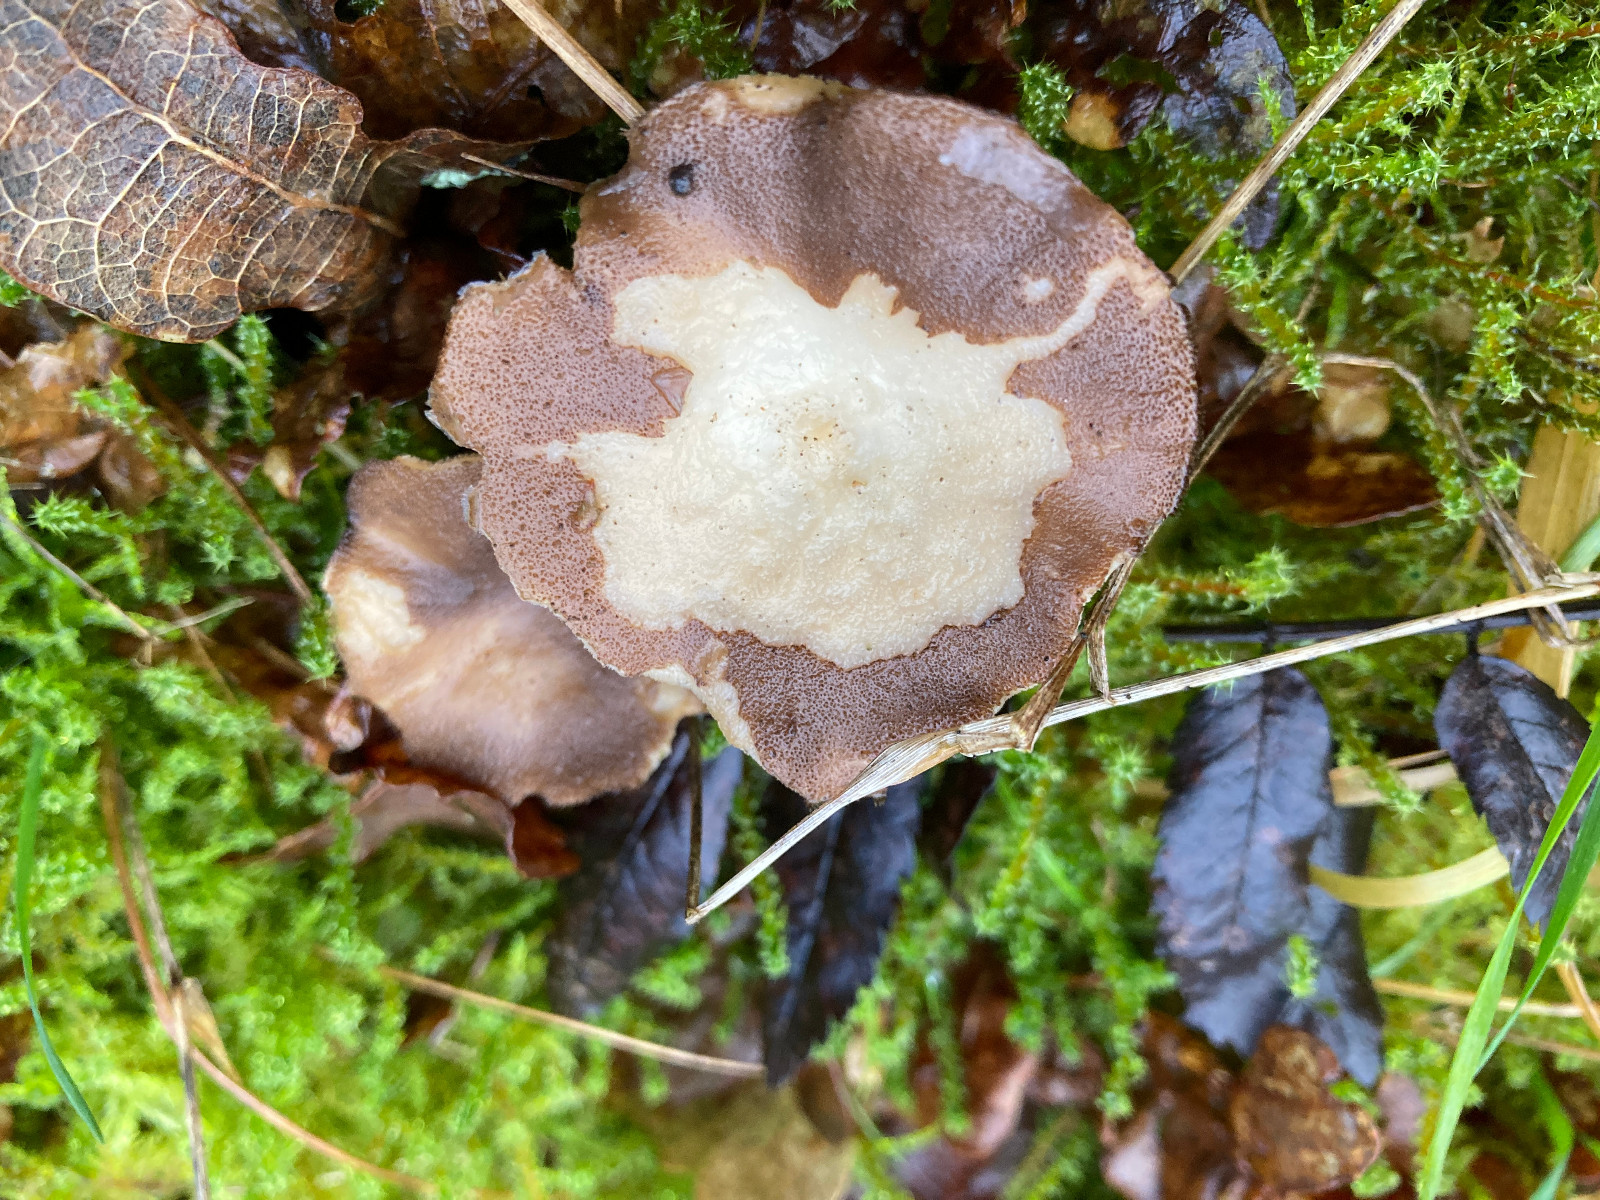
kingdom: Fungi
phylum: Basidiomycota
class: Agaricomycetes
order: Polyporales
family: Polyporaceae
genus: Lentinus
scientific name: Lentinus brumalis
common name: vinter-stilkporesvamp
